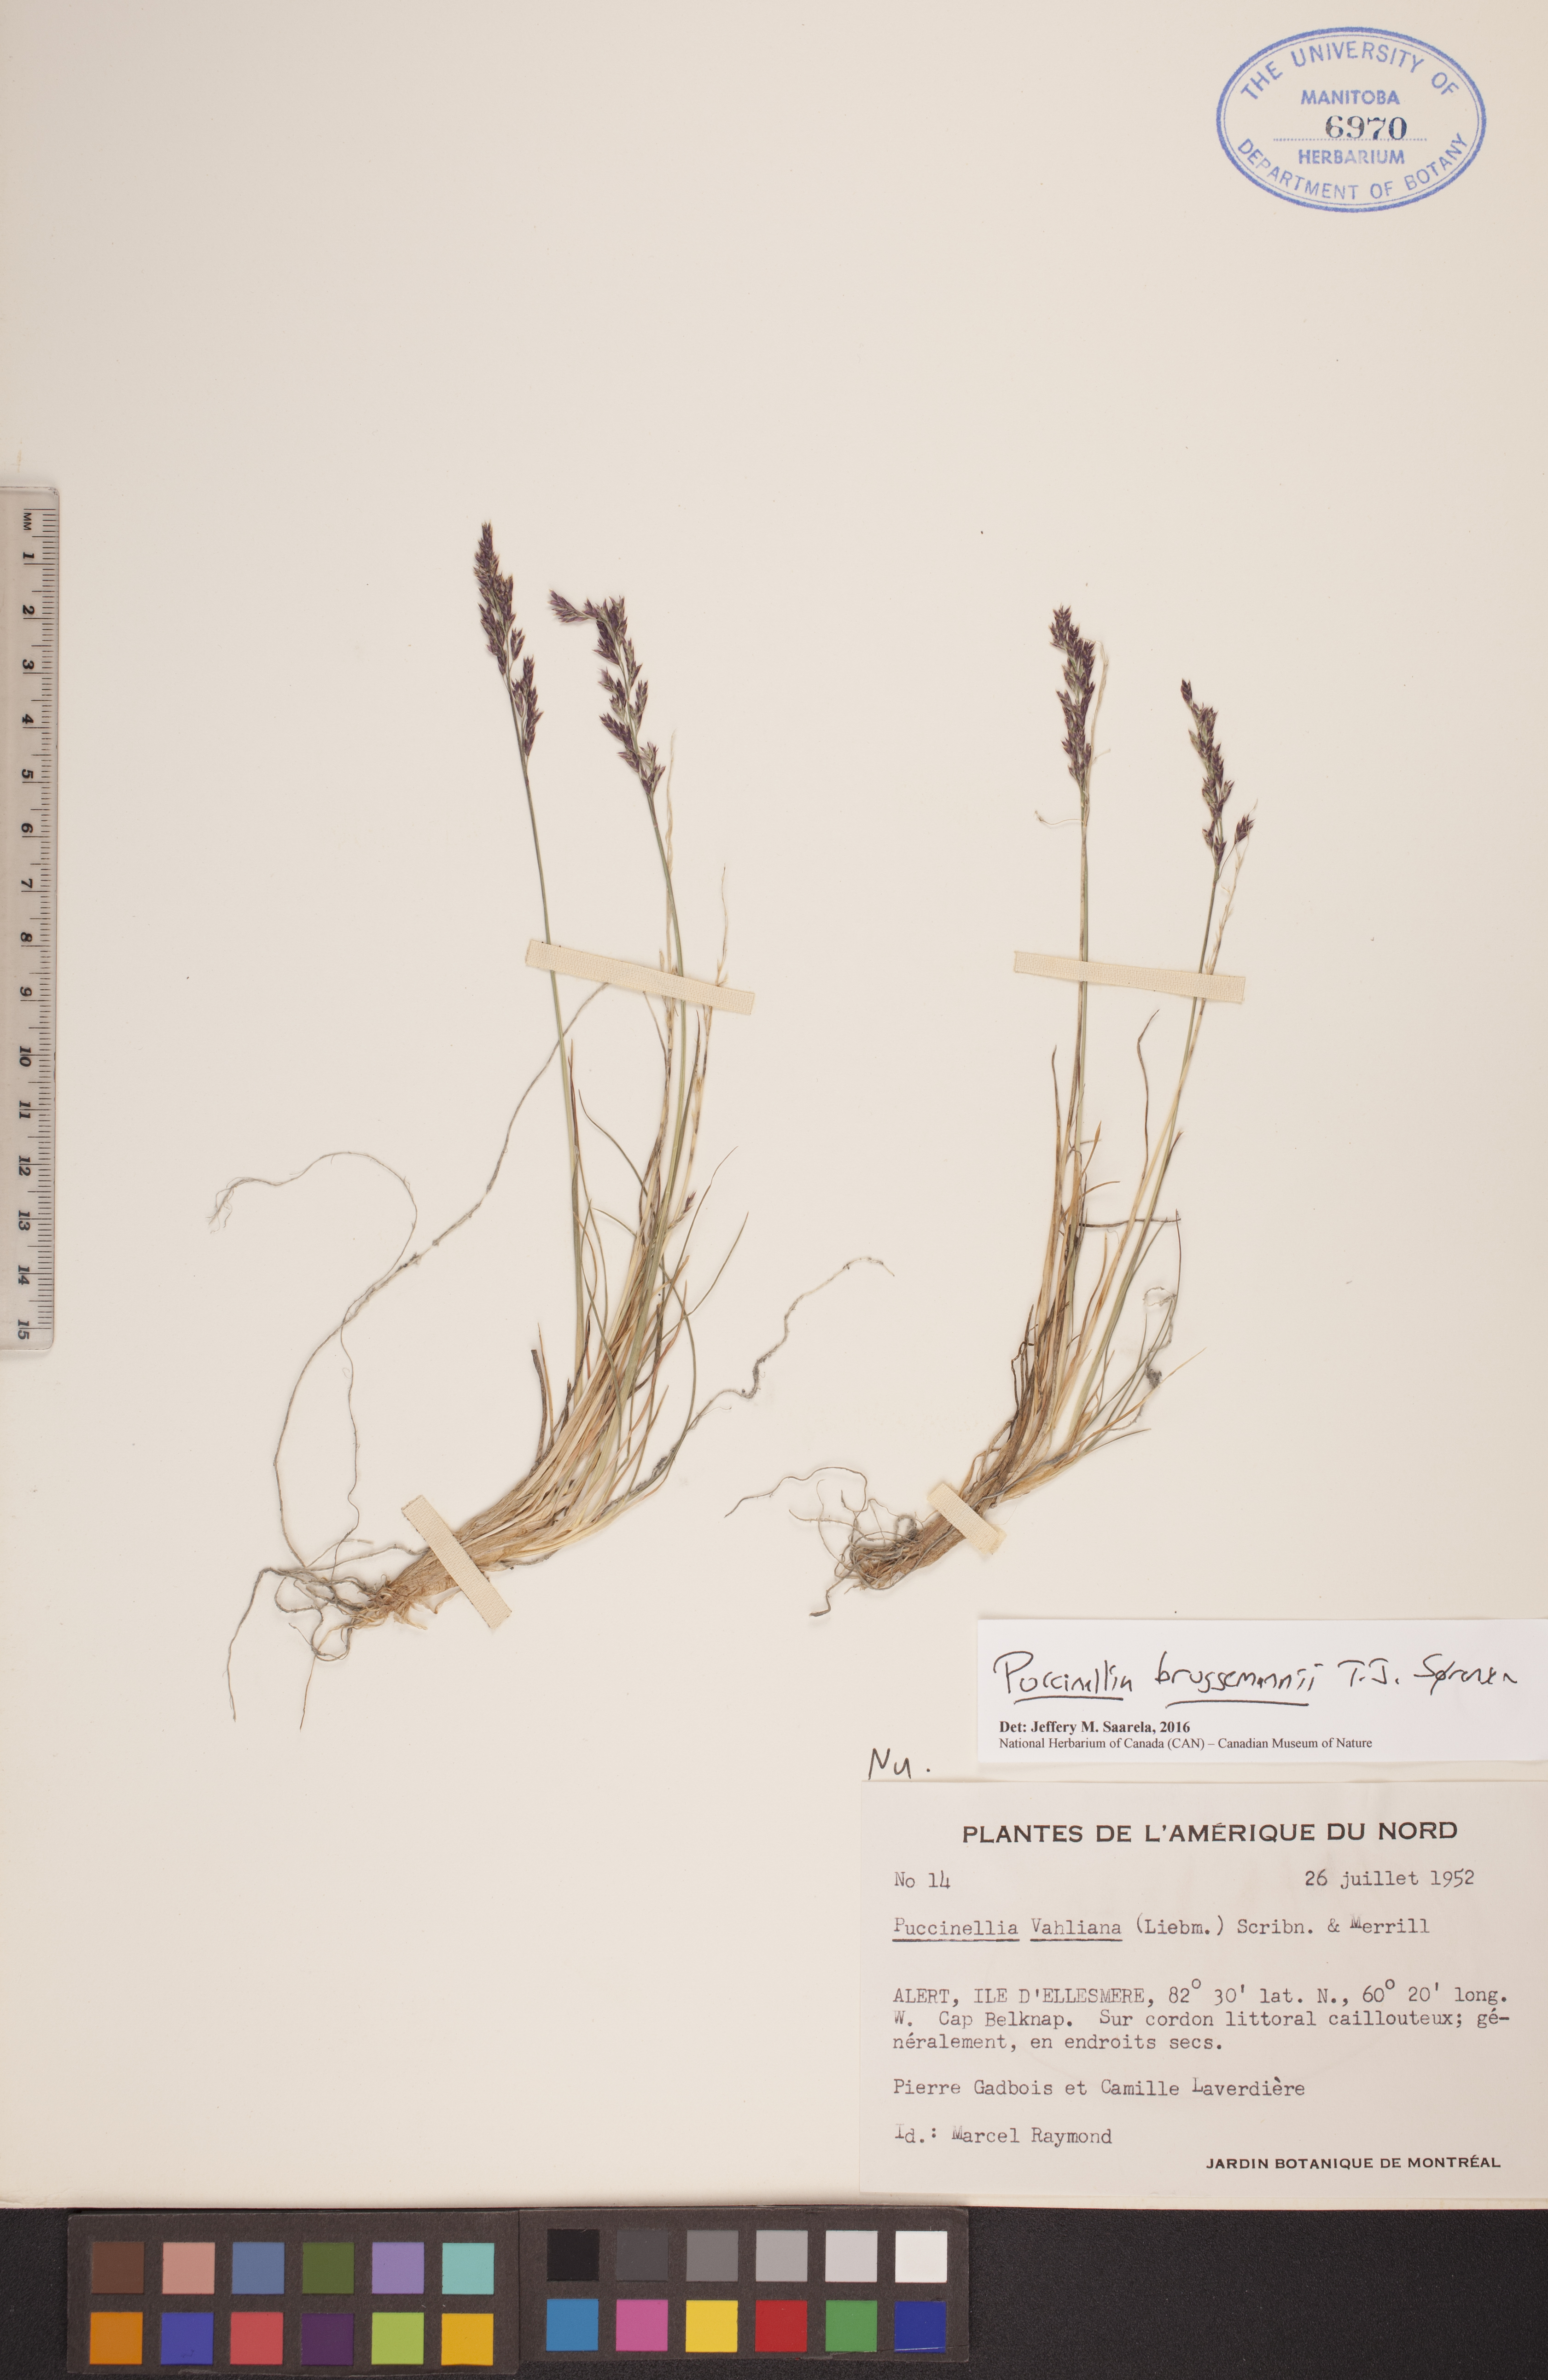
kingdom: Plantae
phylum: Tracheophyta
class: Liliopsida
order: Poales
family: Poaceae
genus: Puccinellia
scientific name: Puccinellia bruggemannii
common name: Bruggemann's alkaligrass
